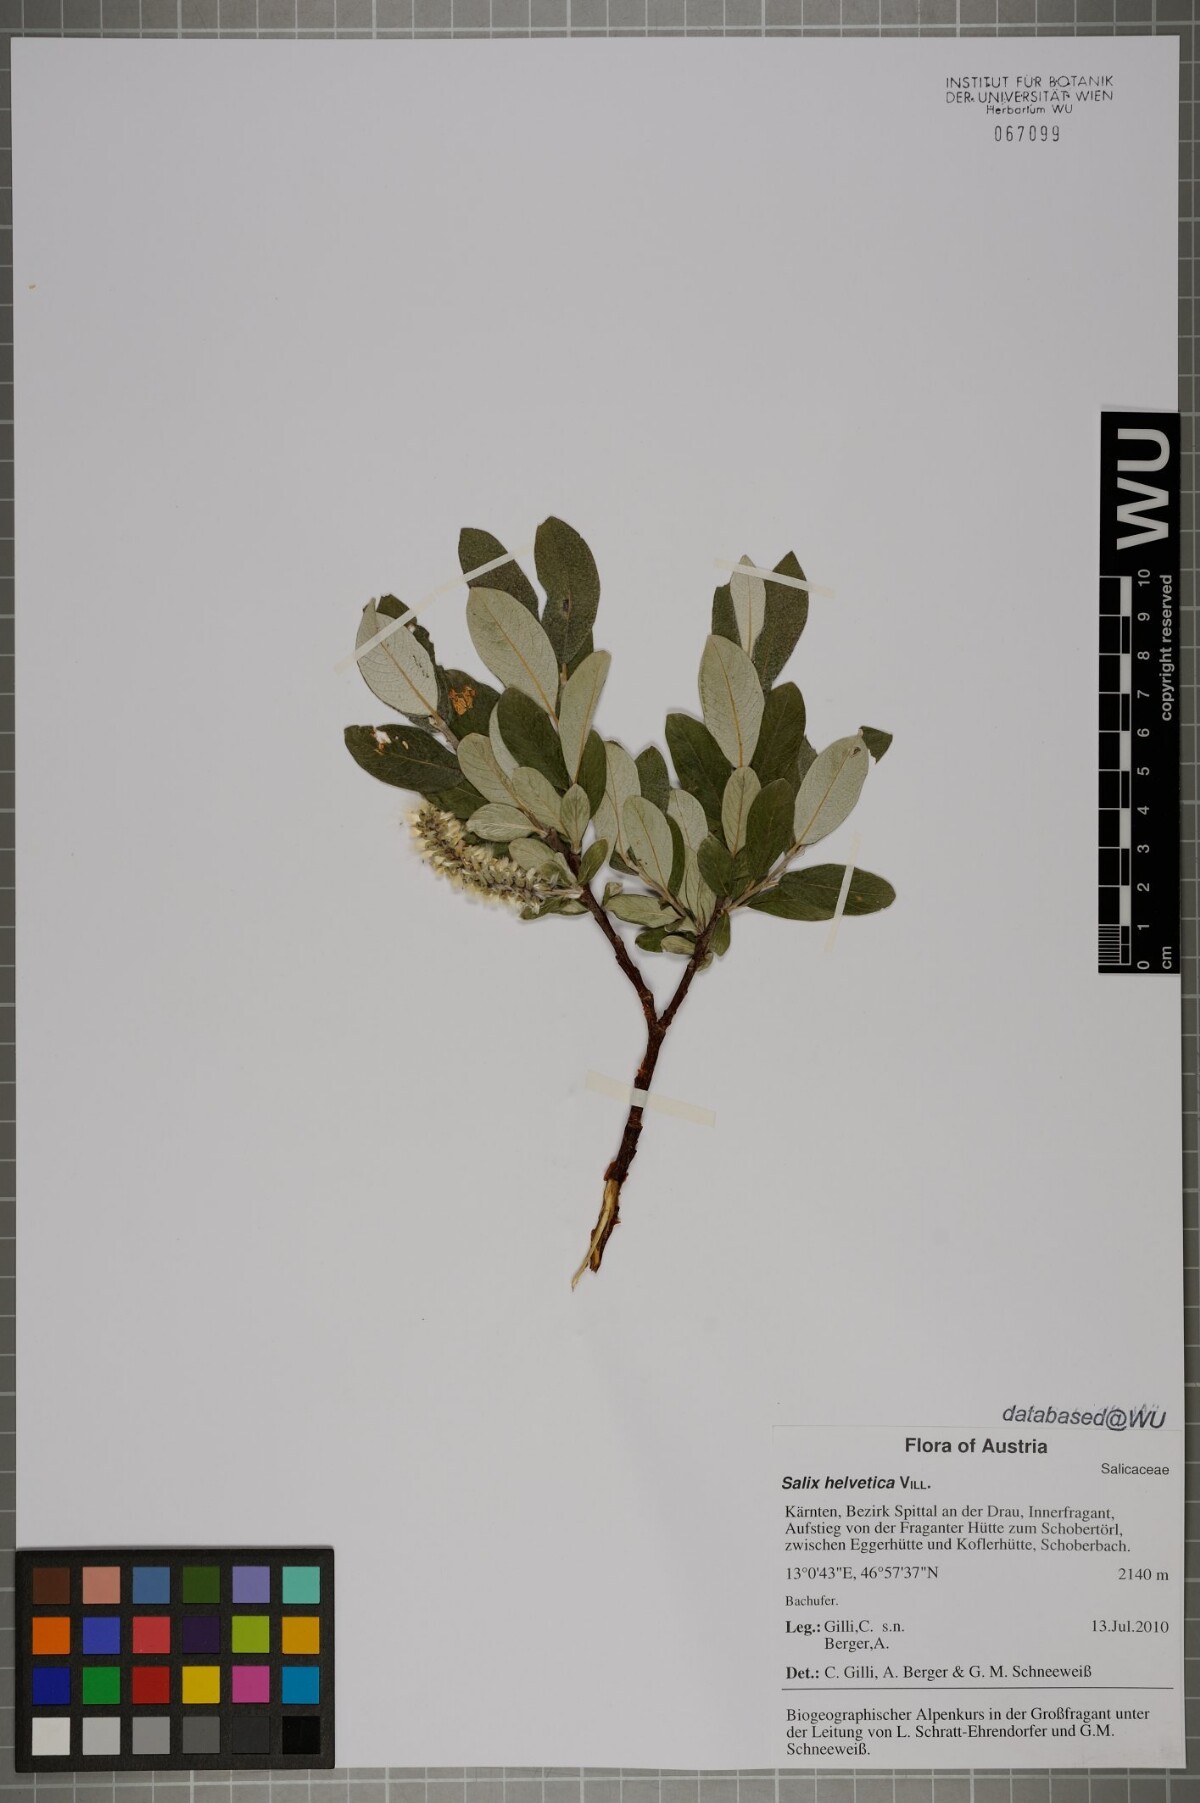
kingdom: Plantae
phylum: Tracheophyta
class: Magnoliopsida
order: Malpighiales
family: Salicaceae
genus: Salix
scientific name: Salix helvetica
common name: Swiss willow
